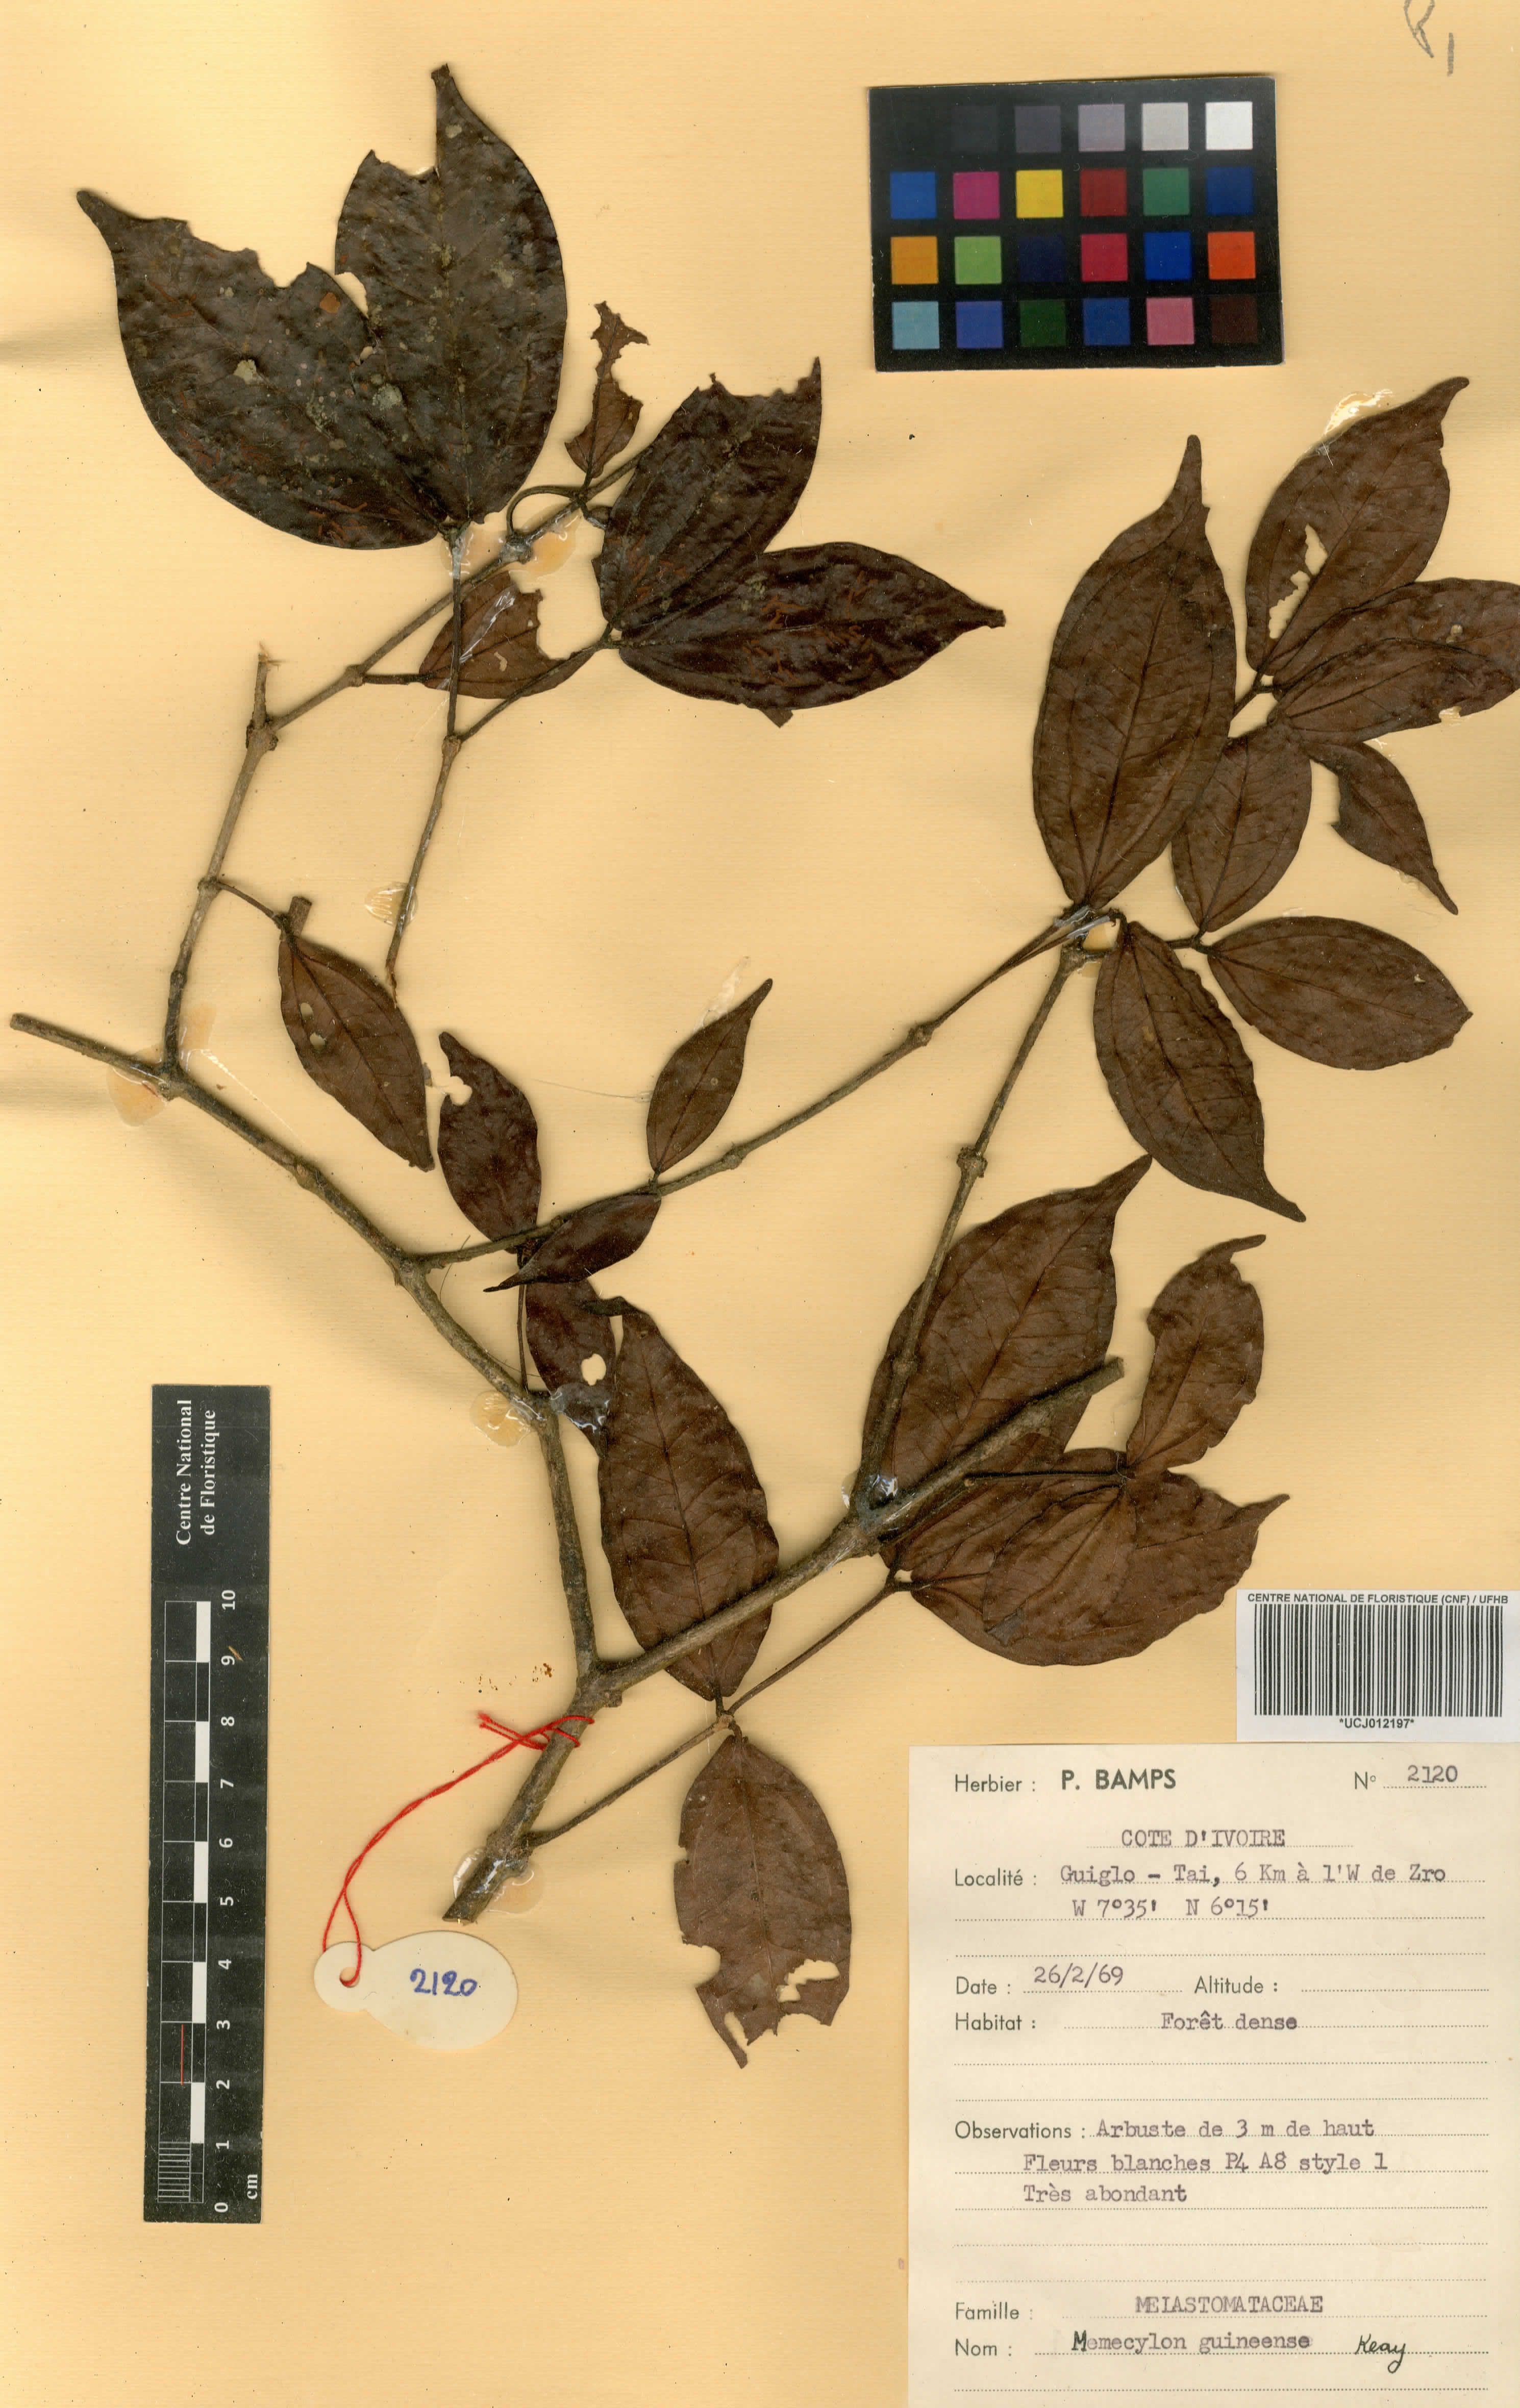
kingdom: Plantae
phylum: Tracheophyta
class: Magnoliopsida
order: Myrtales
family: Melastomataceae
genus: Warneckea
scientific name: Warneckea guineensis
